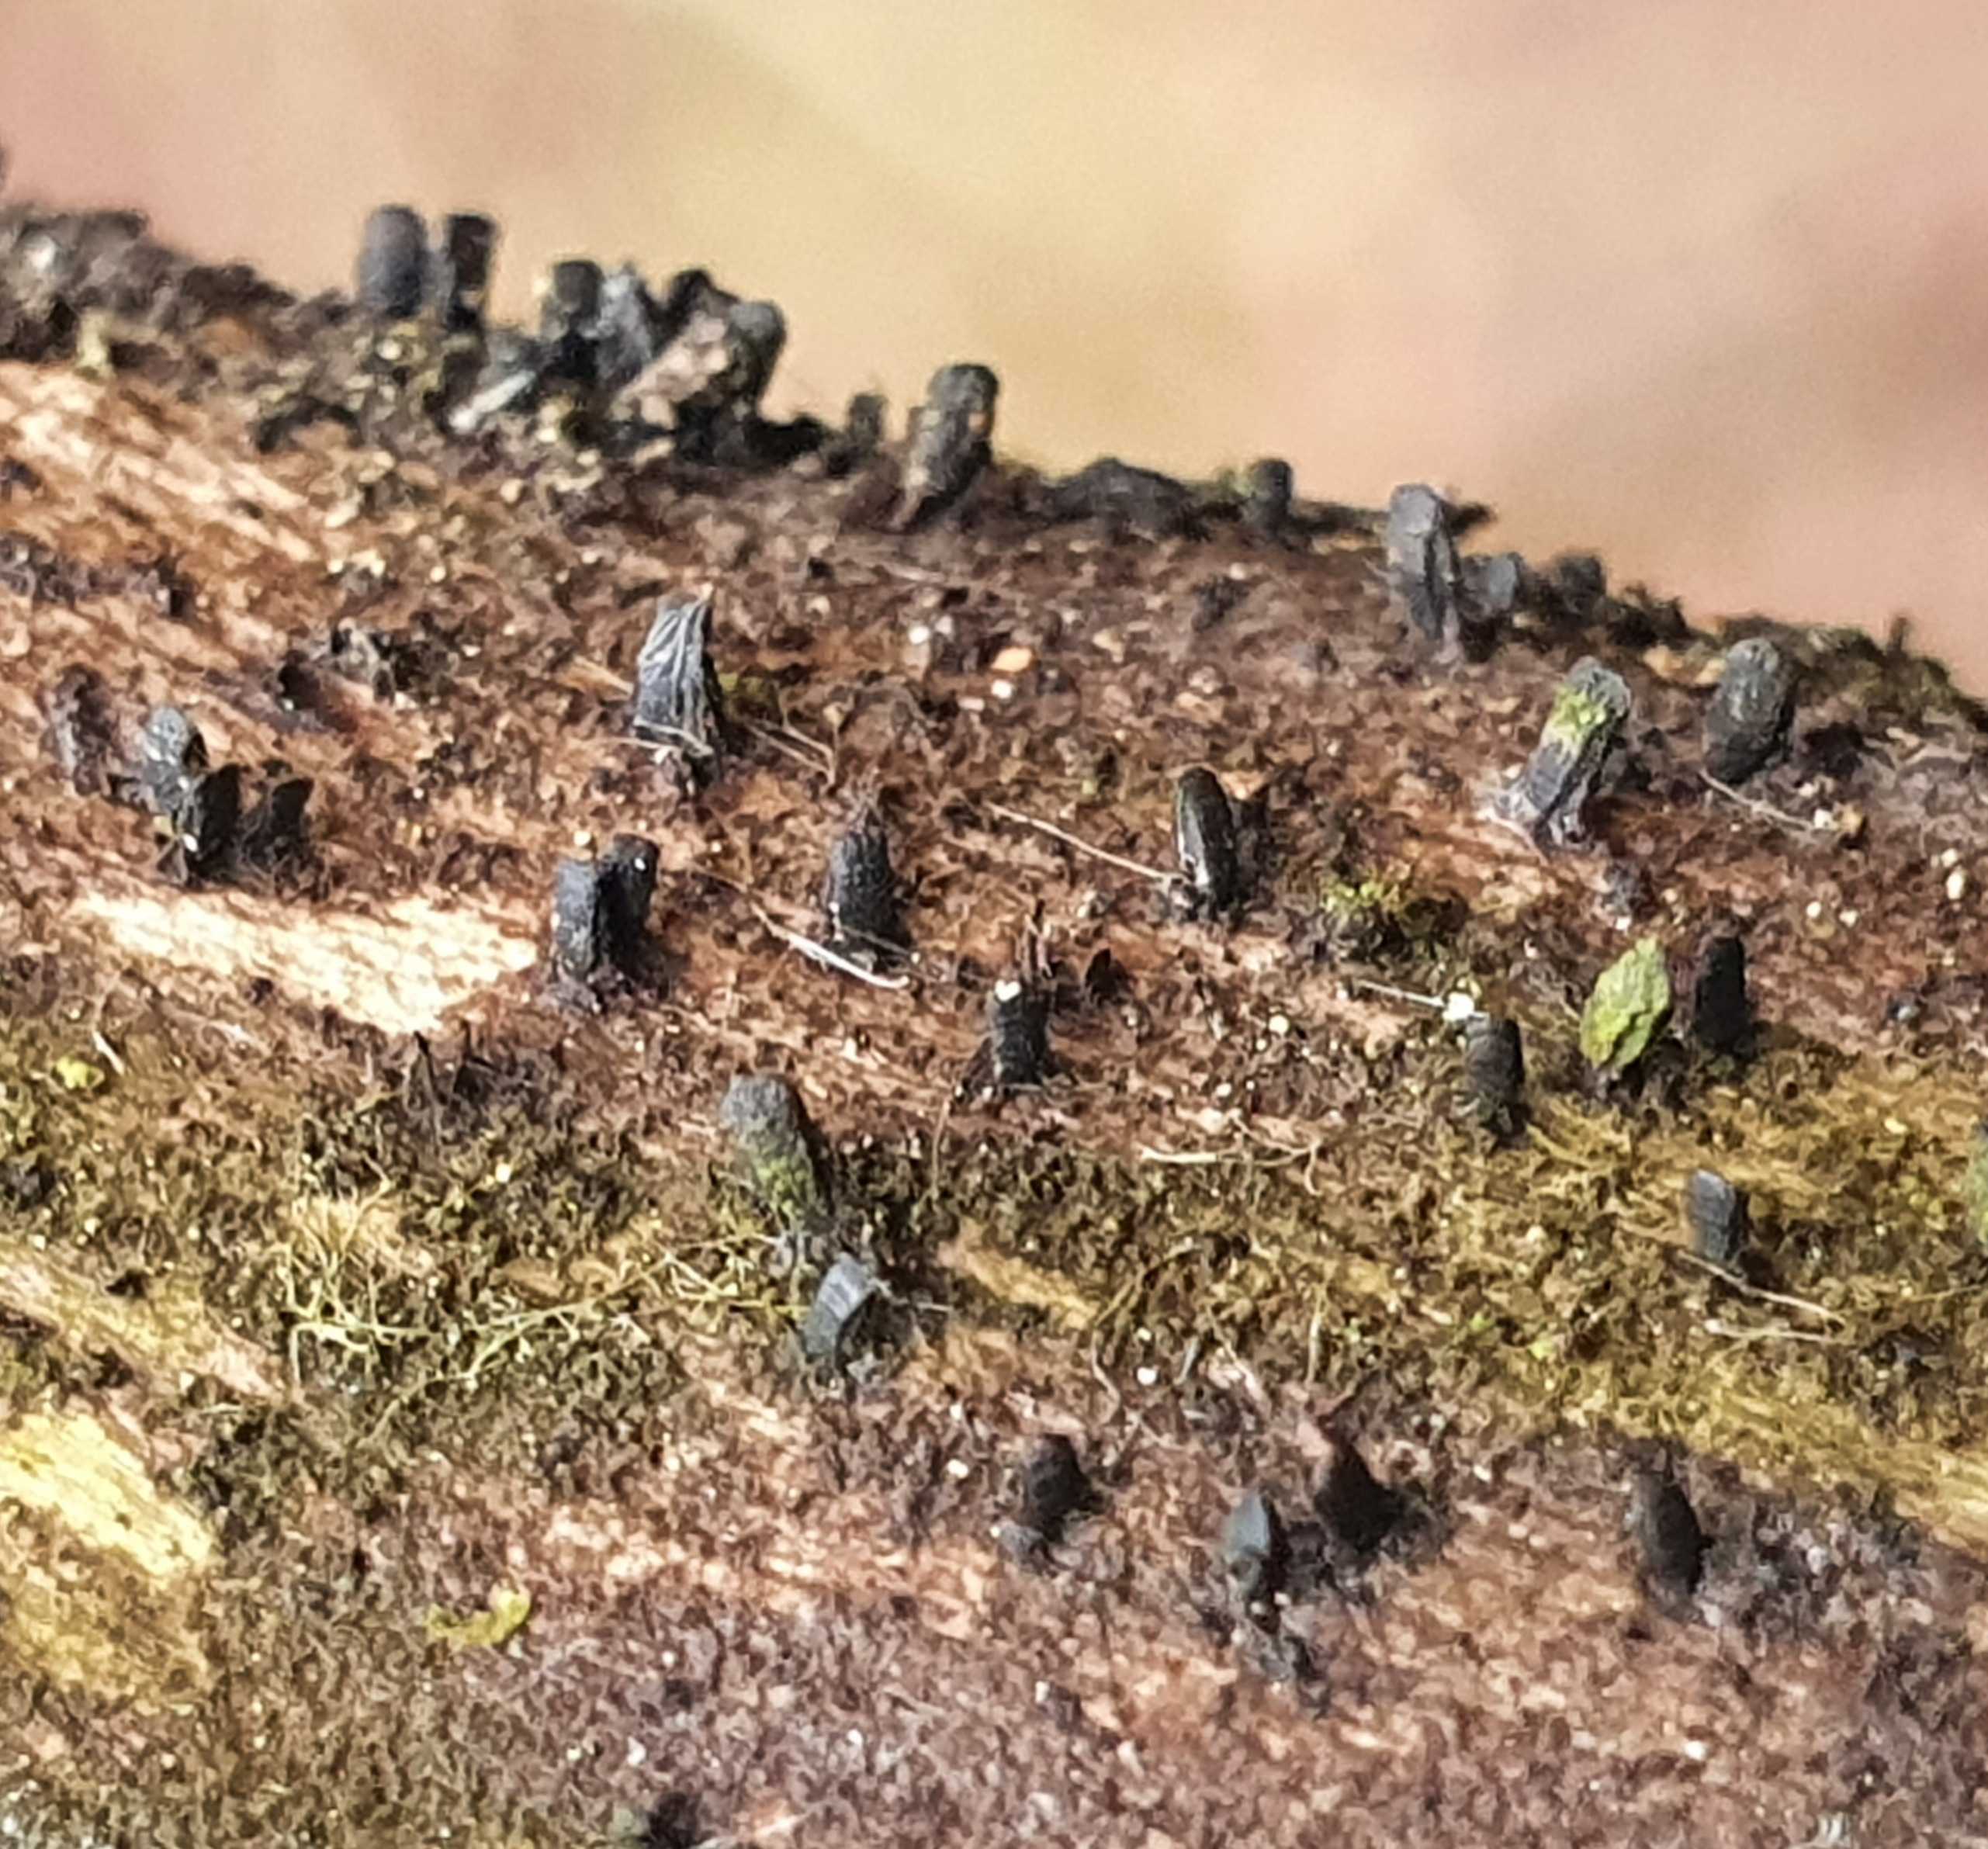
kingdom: Fungi
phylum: Ascomycota
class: Eurotiomycetes
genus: Glyphium
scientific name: Glyphium elatum
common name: kuløkse
